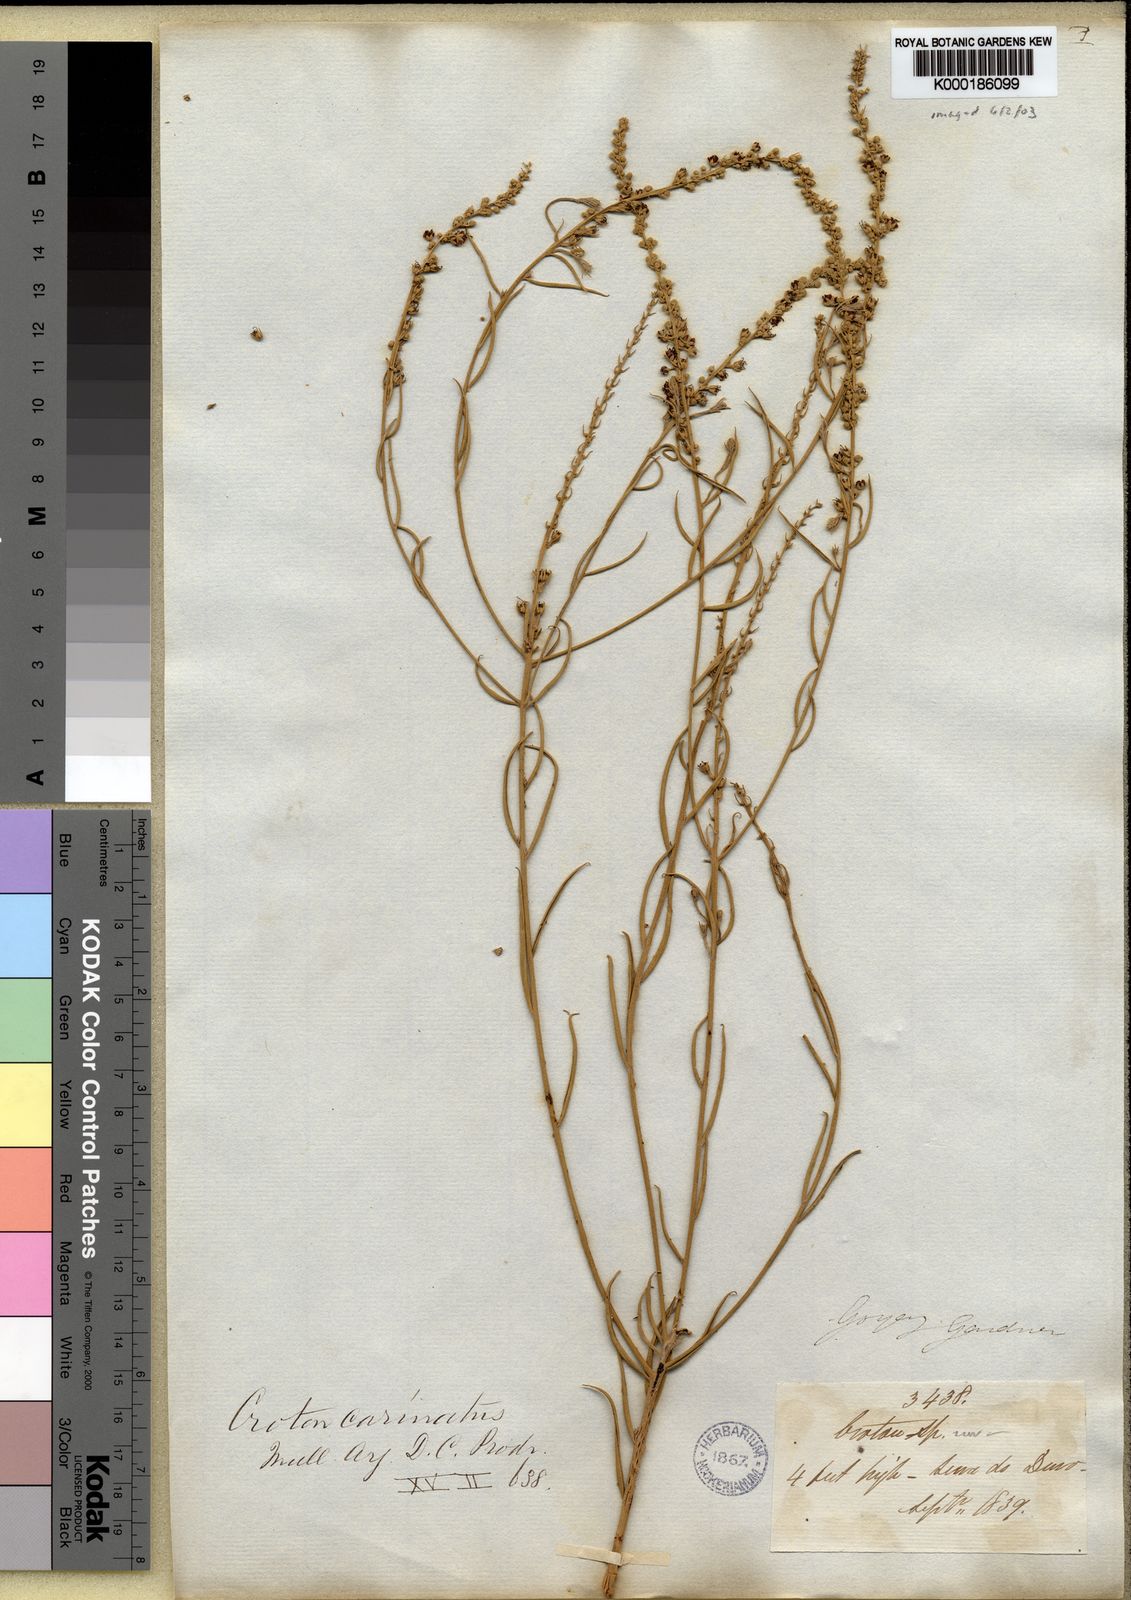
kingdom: Plantae
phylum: Tracheophyta
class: Magnoliopsida
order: Malpighiales
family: Euphorbiaceae
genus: Croton
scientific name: Croton
